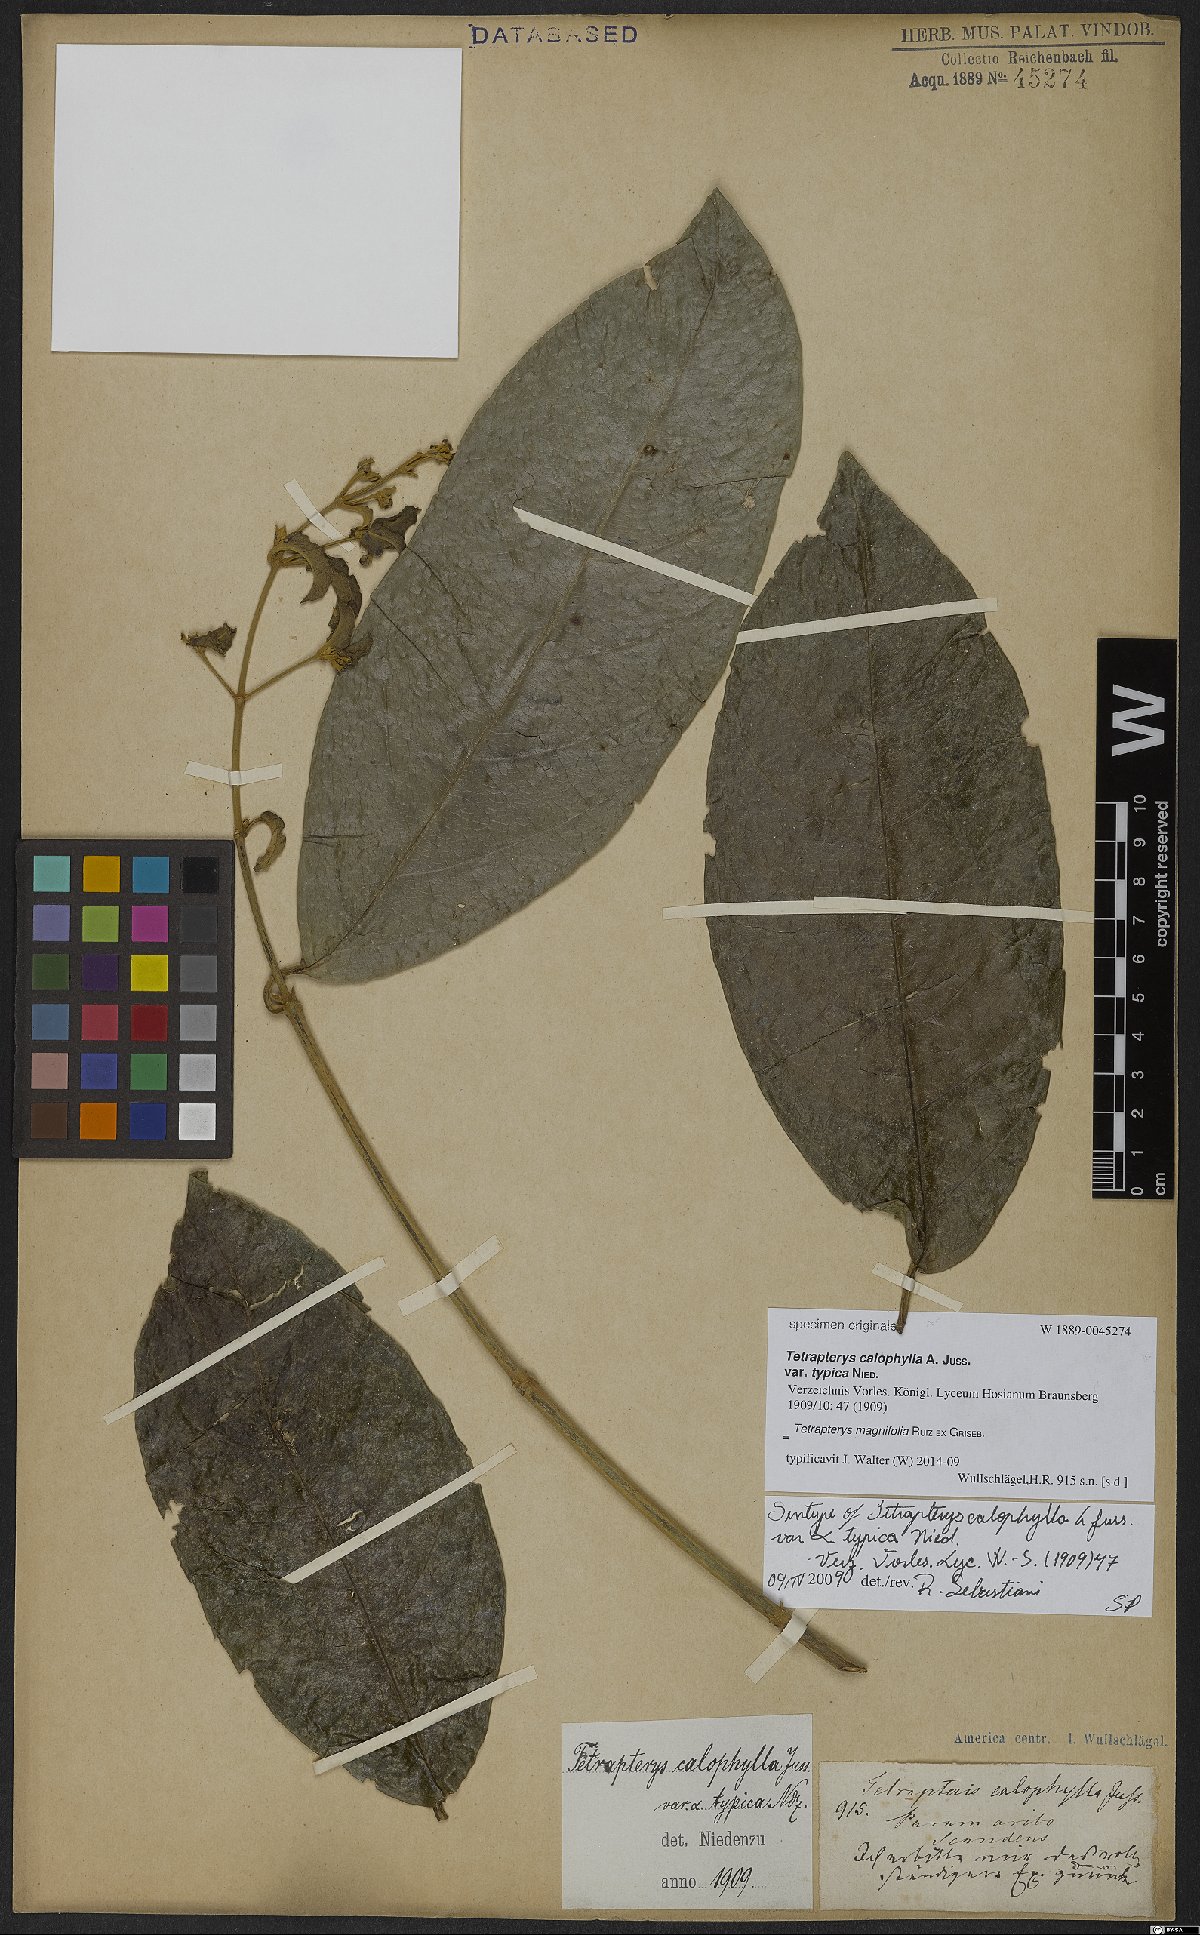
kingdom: Plantae
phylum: Tracheophyta
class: Magnoliopsida
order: Malpighiales
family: Malpighiaceae
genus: Tetrapterys
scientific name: Tetrapterys magnifolia
